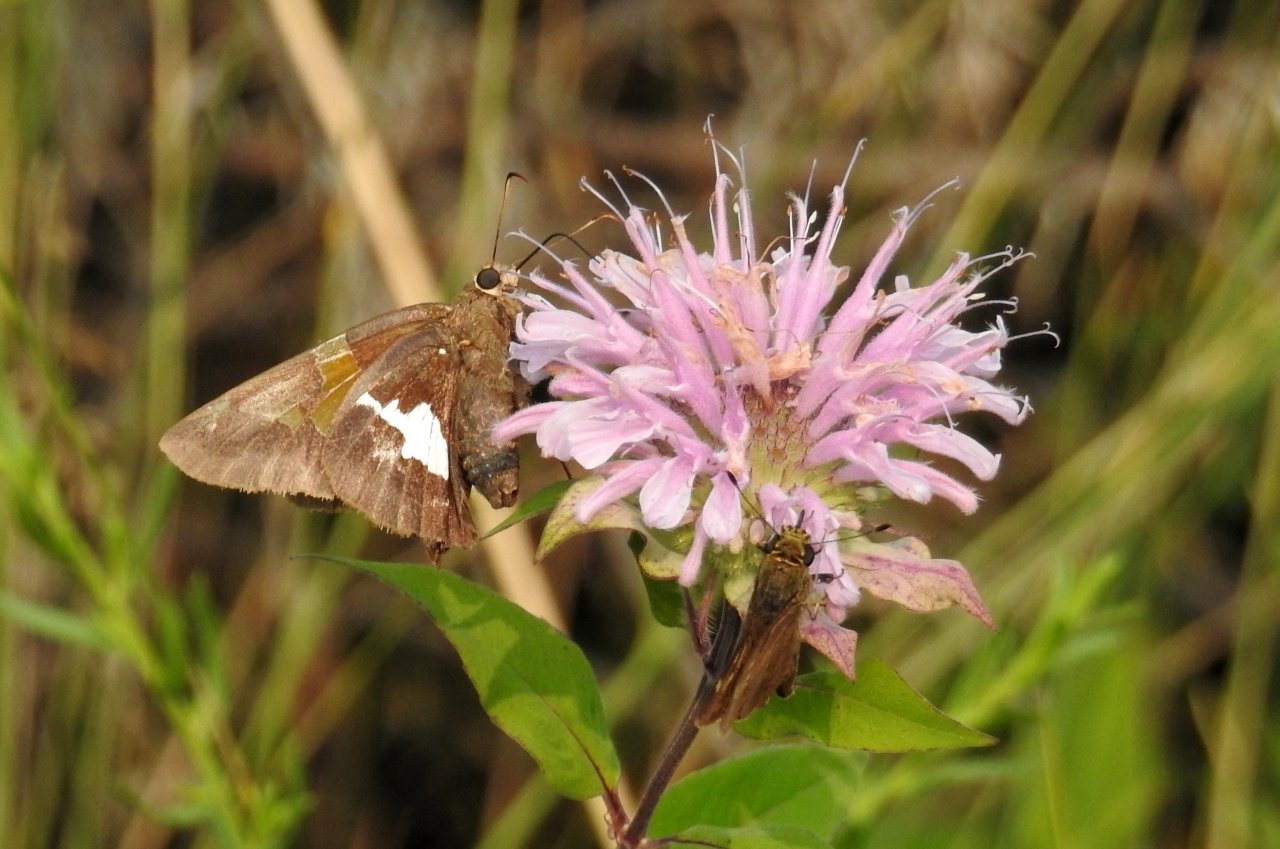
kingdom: Animalia
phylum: Arthropoda
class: Insecta
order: Lepidoptera
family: Hesperiidae
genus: Epargyreus
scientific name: Epargyreus clarus
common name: Silver-spotted Skipper
